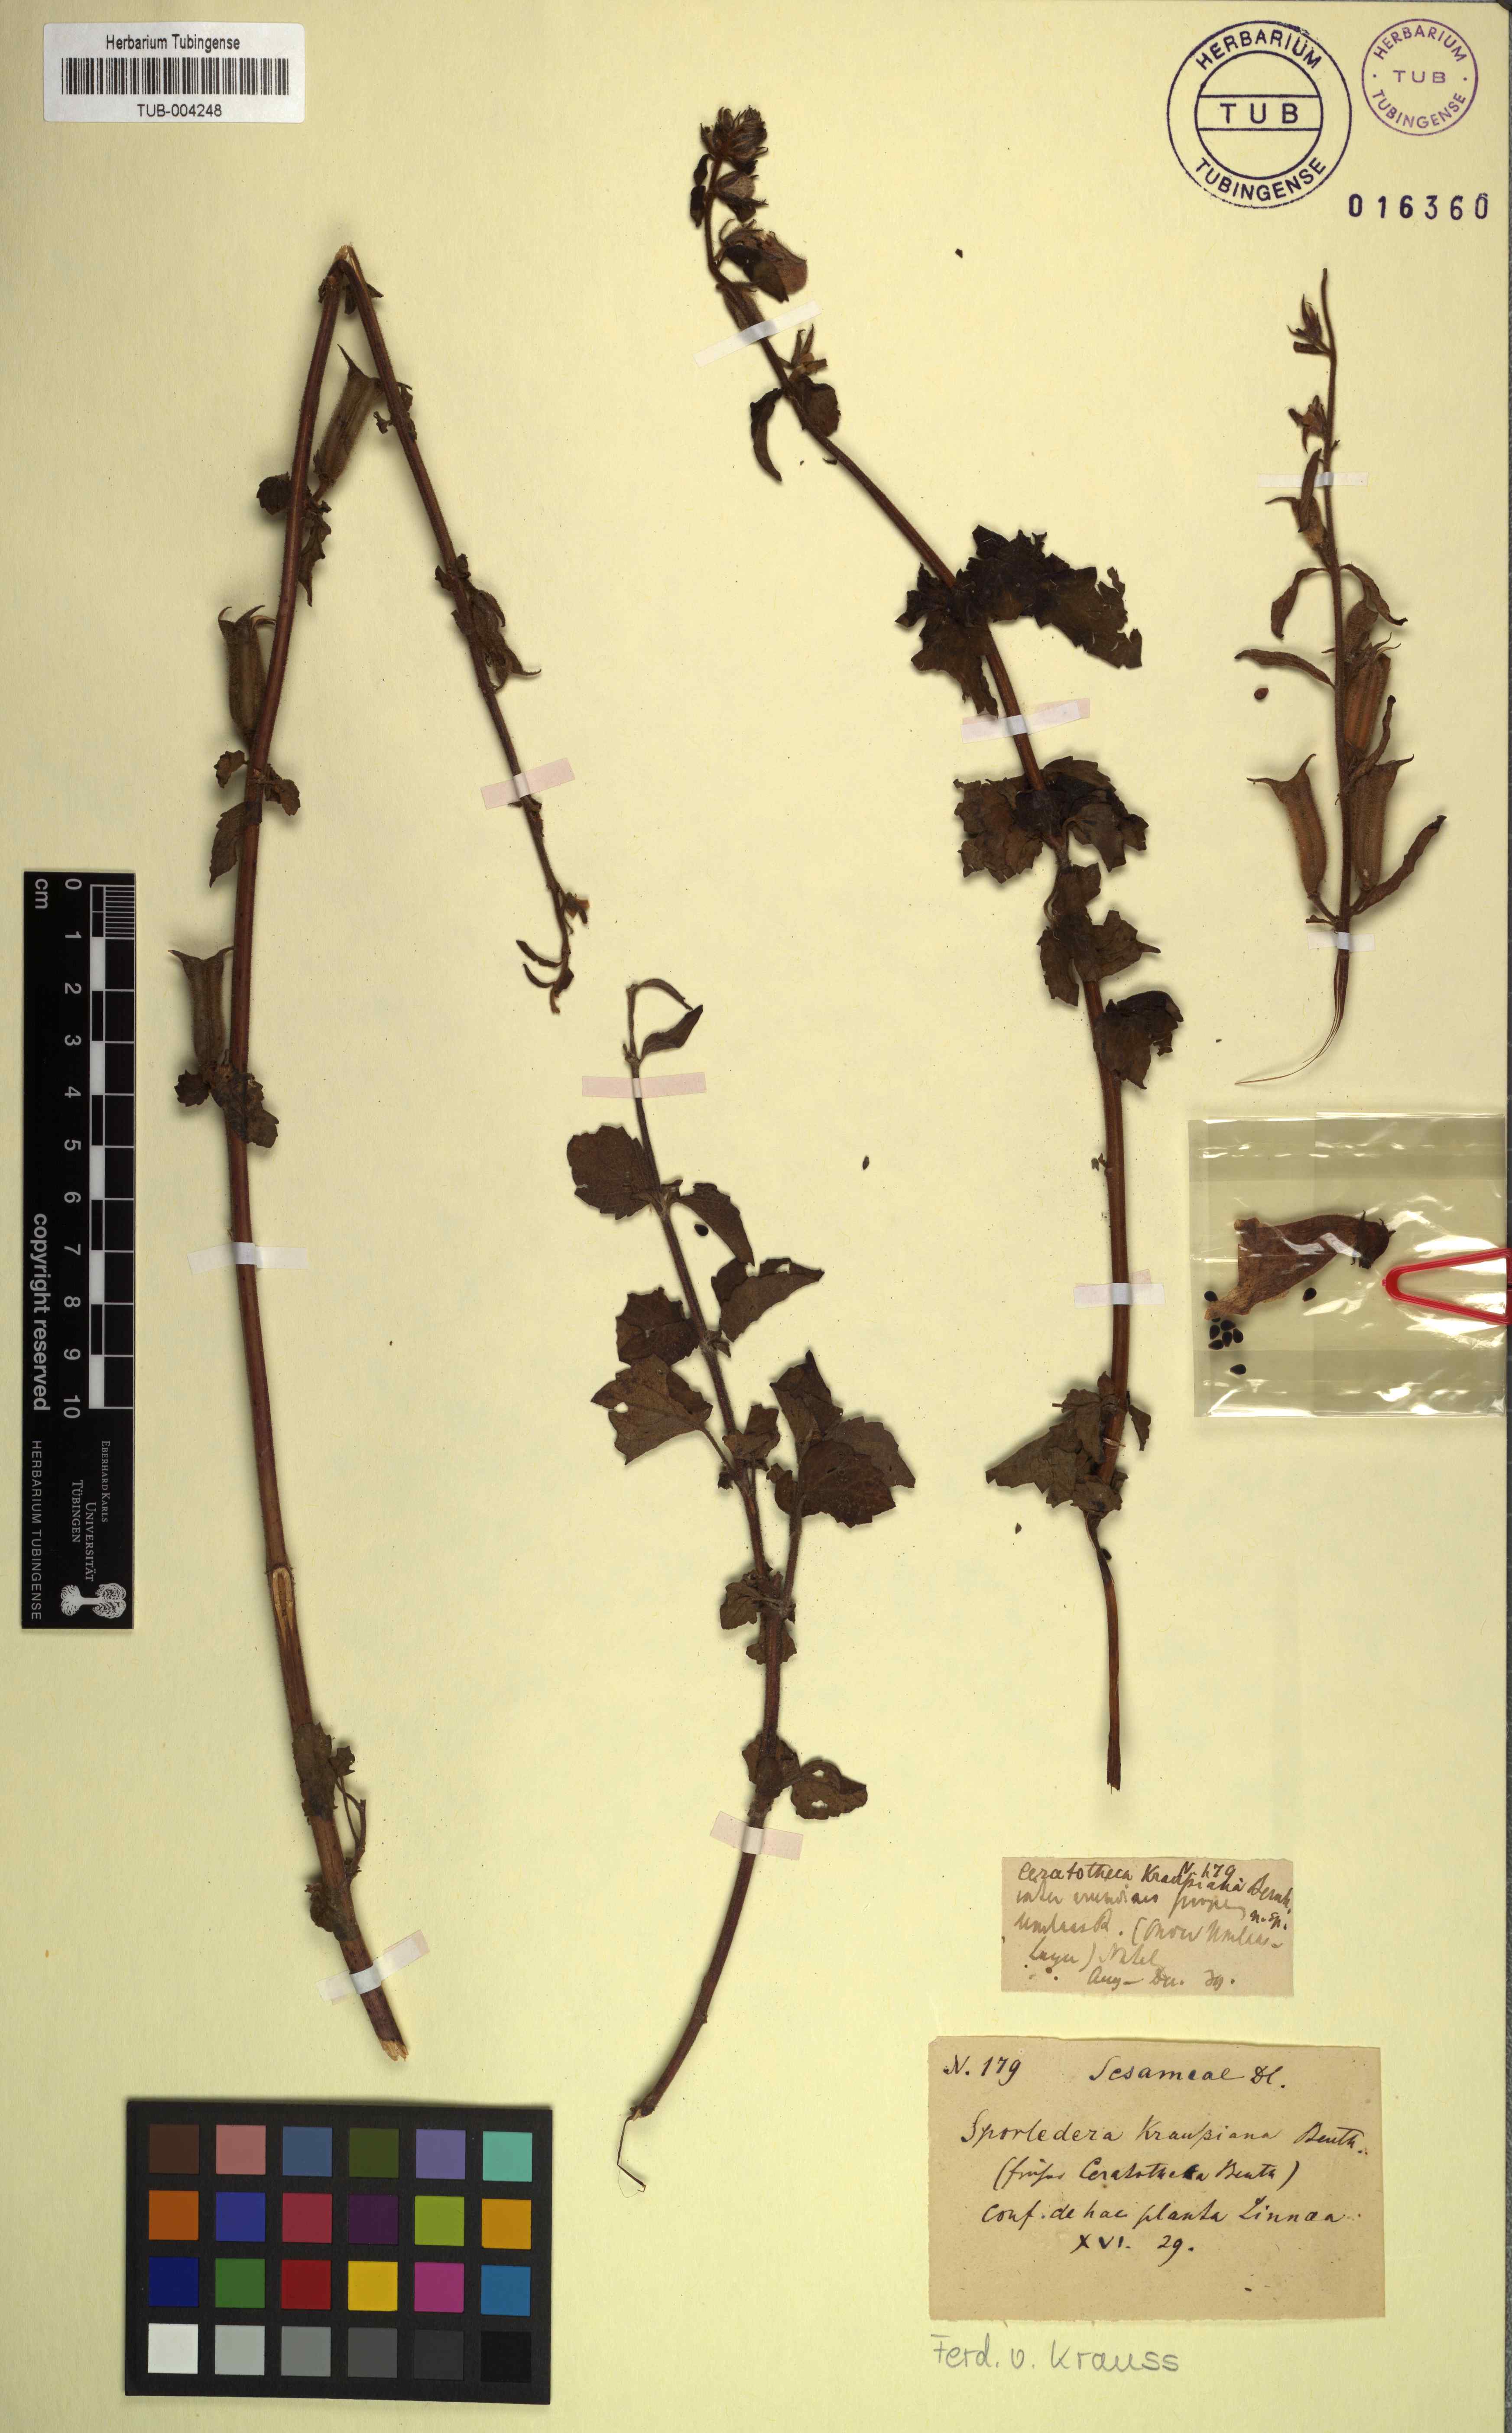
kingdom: Plantae
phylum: Tracheophyta
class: Magnoliopsida
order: Lamiales
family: Pedaliaceae
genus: Sesamum
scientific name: Sesamum trilobum
